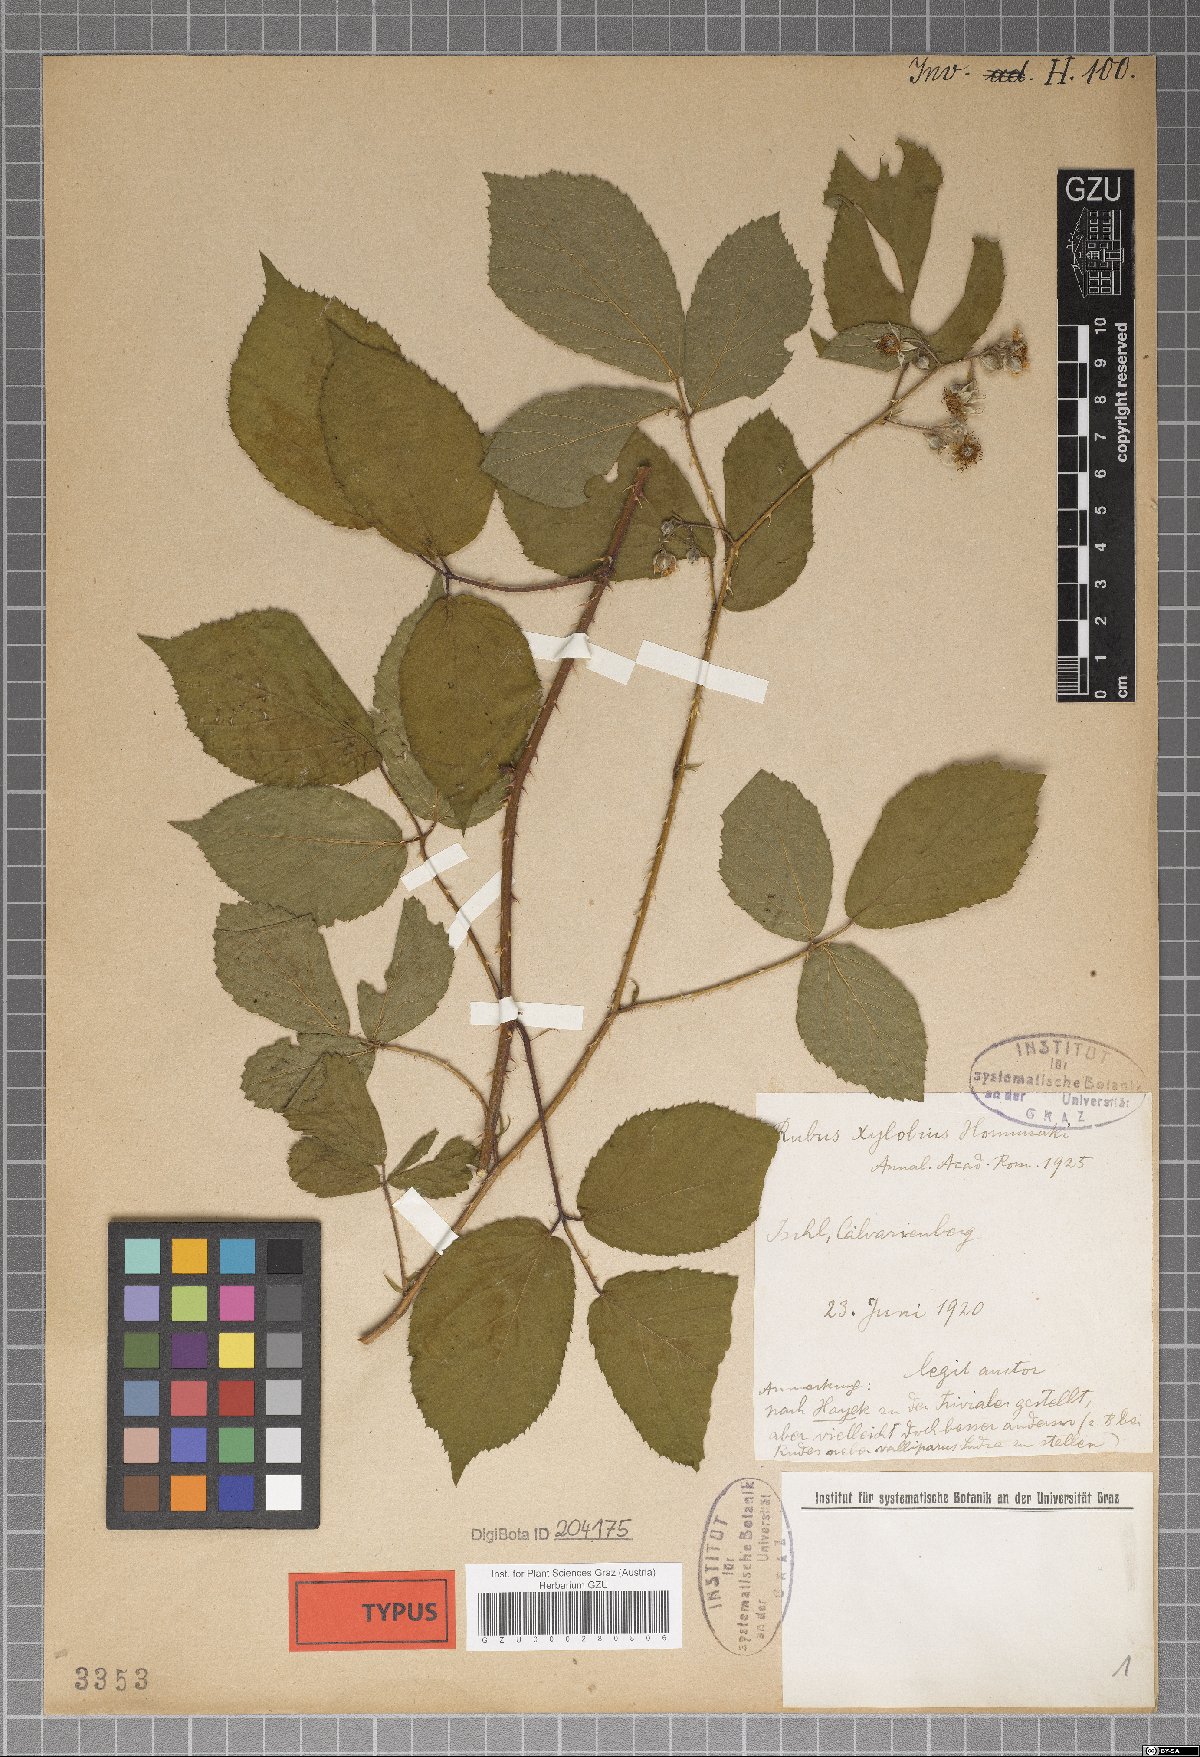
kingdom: Plantae
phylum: Tracheophyta
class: Magnoliopsida
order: Rosales
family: Rosaceae
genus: Rubus
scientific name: Rubus xylobius
